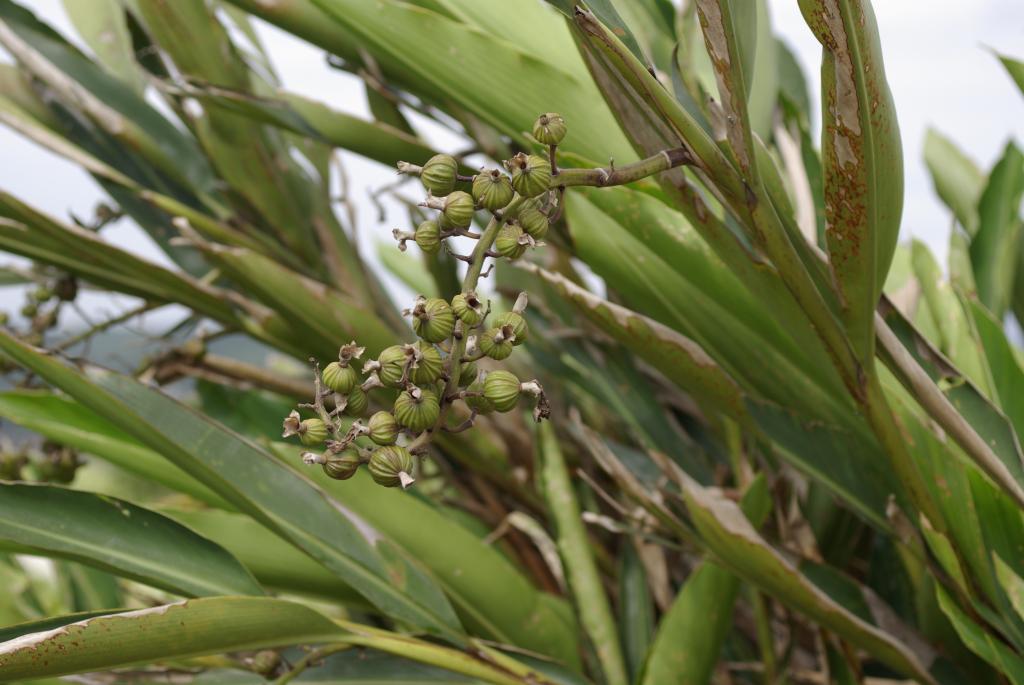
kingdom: Plantae
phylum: Tracheophyta
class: Liliopsida
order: Zingiberales
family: Zingiberaceae
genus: Alpinia
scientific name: Alpinia zerumbet
